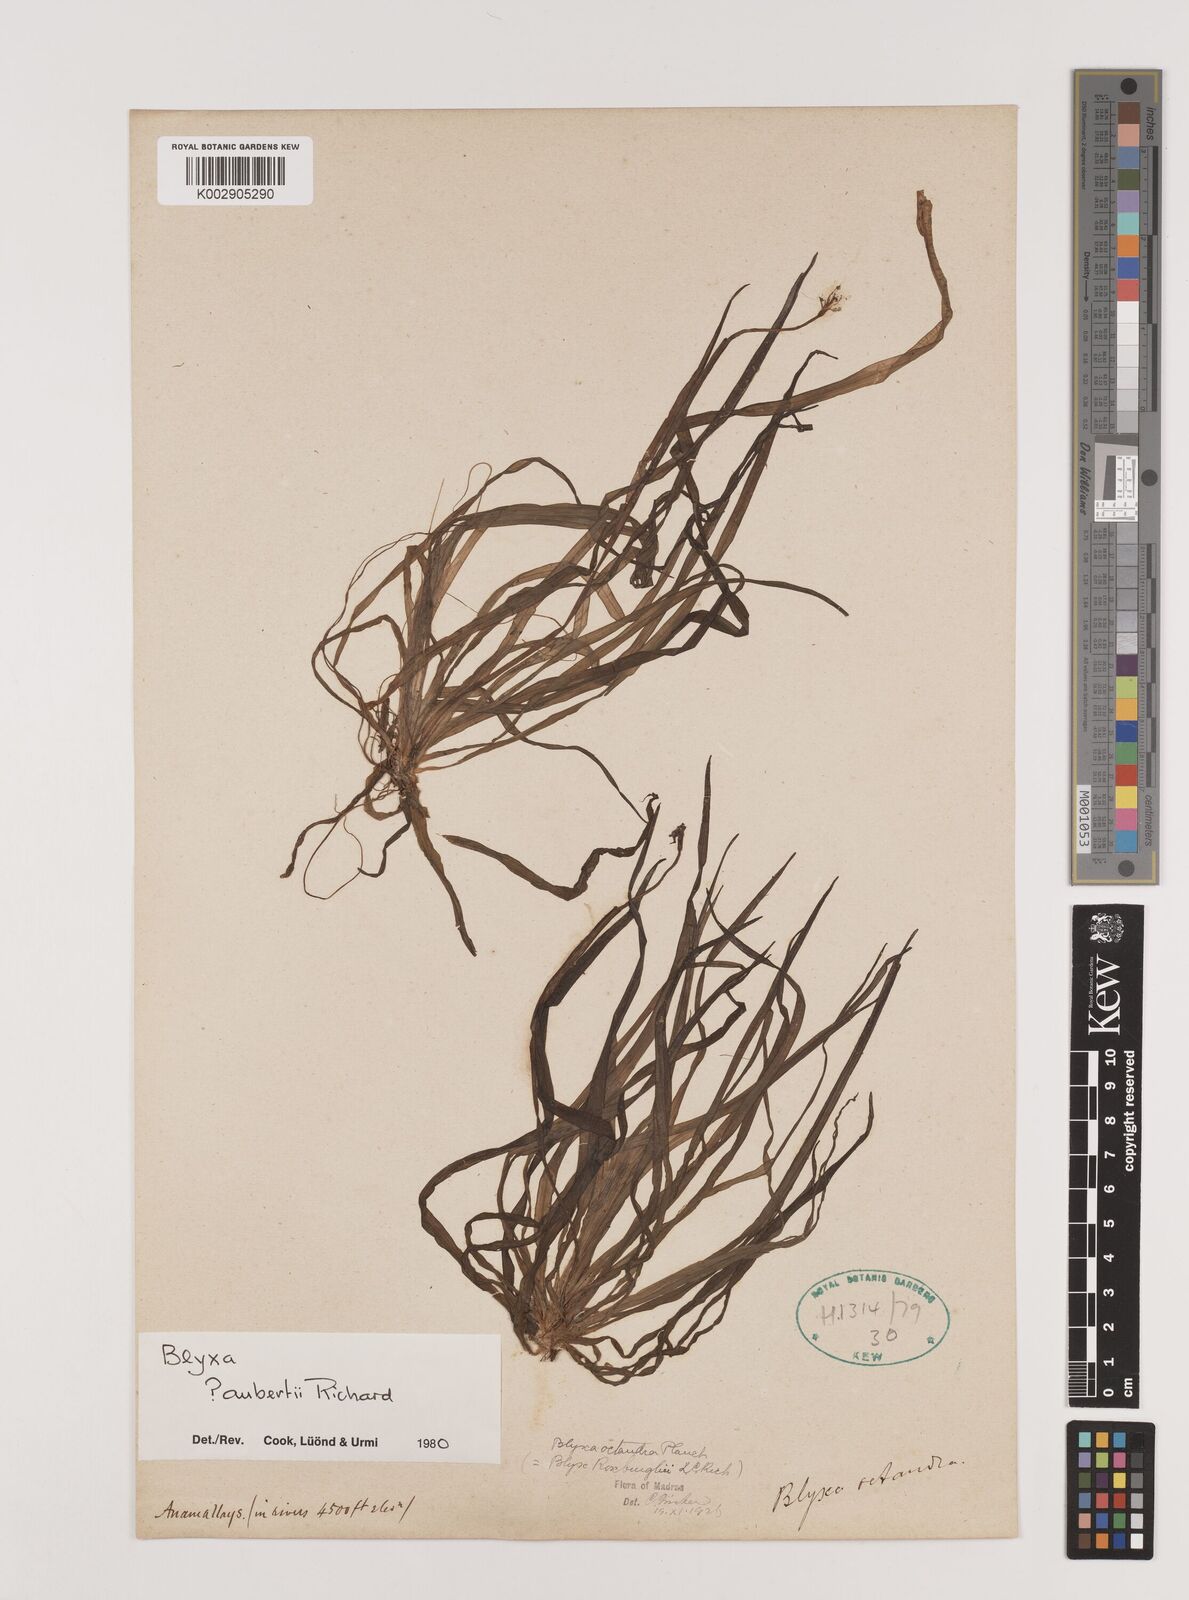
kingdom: Plantae
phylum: Tracheophyta
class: Liliopsida
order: Alismatales
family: Hydrocharitaceae
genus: Blyxa
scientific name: Blyxa aubertii
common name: Roundfruit blyxa
